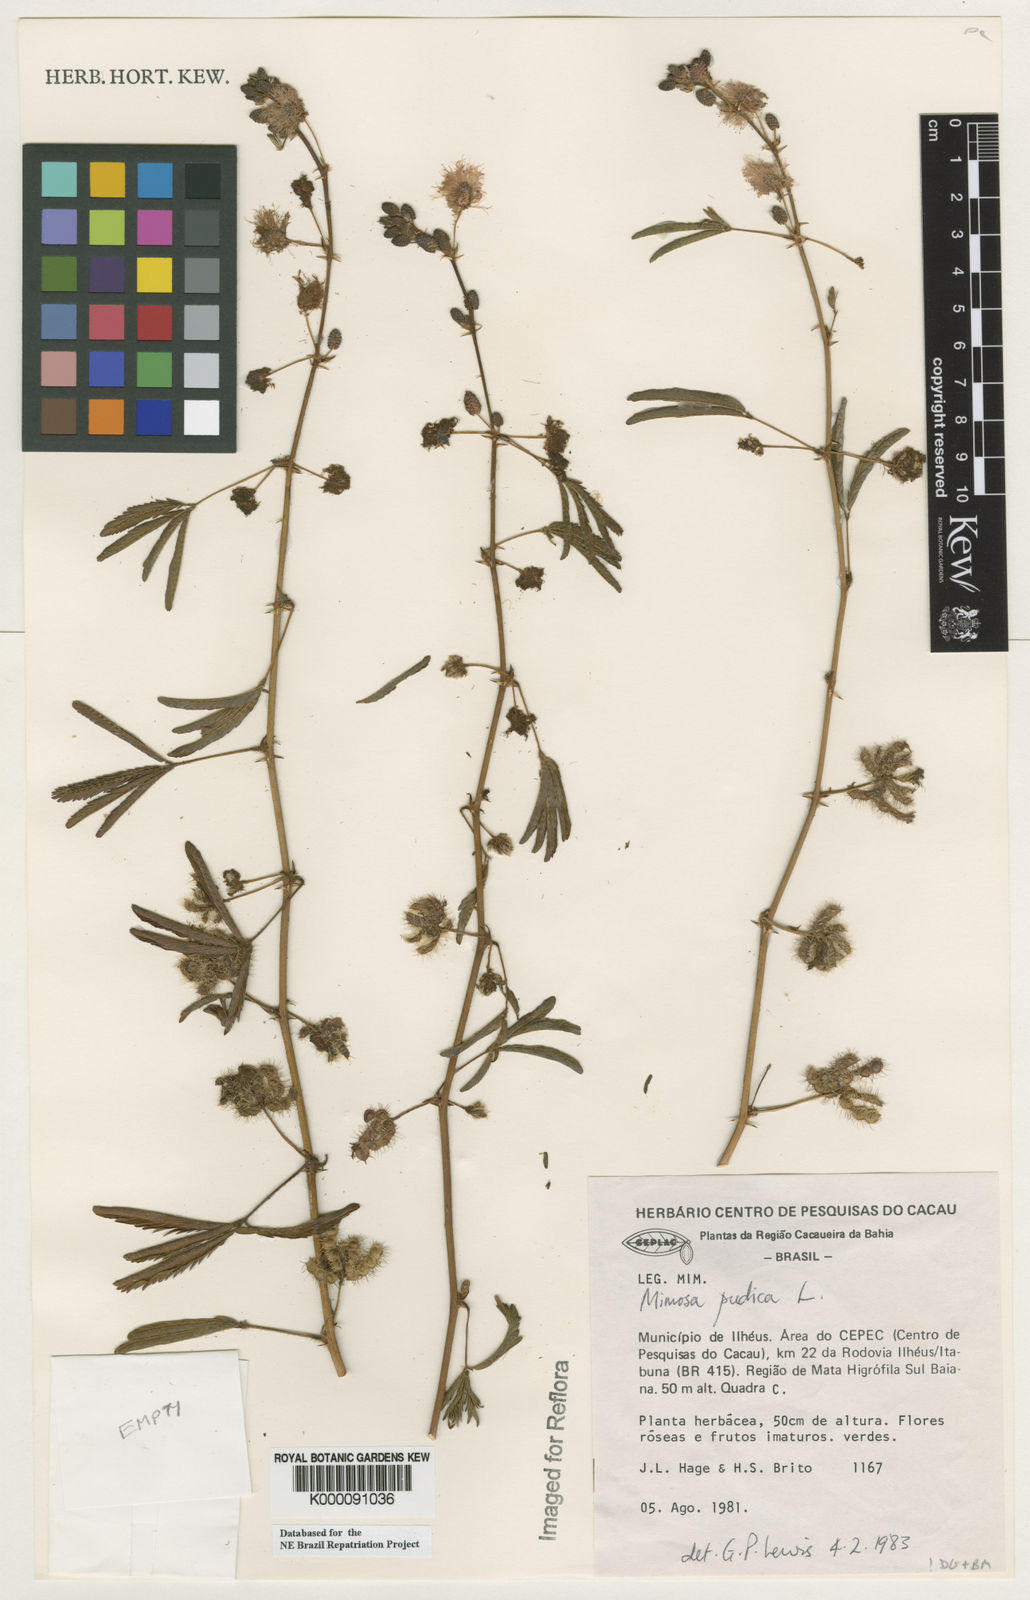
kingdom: Plantae
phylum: Tracheophyta
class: Magnoliopsida
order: Fabales
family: Fabaceae
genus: Mimosa
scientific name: Mimosa pudica
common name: Sensitive plant
